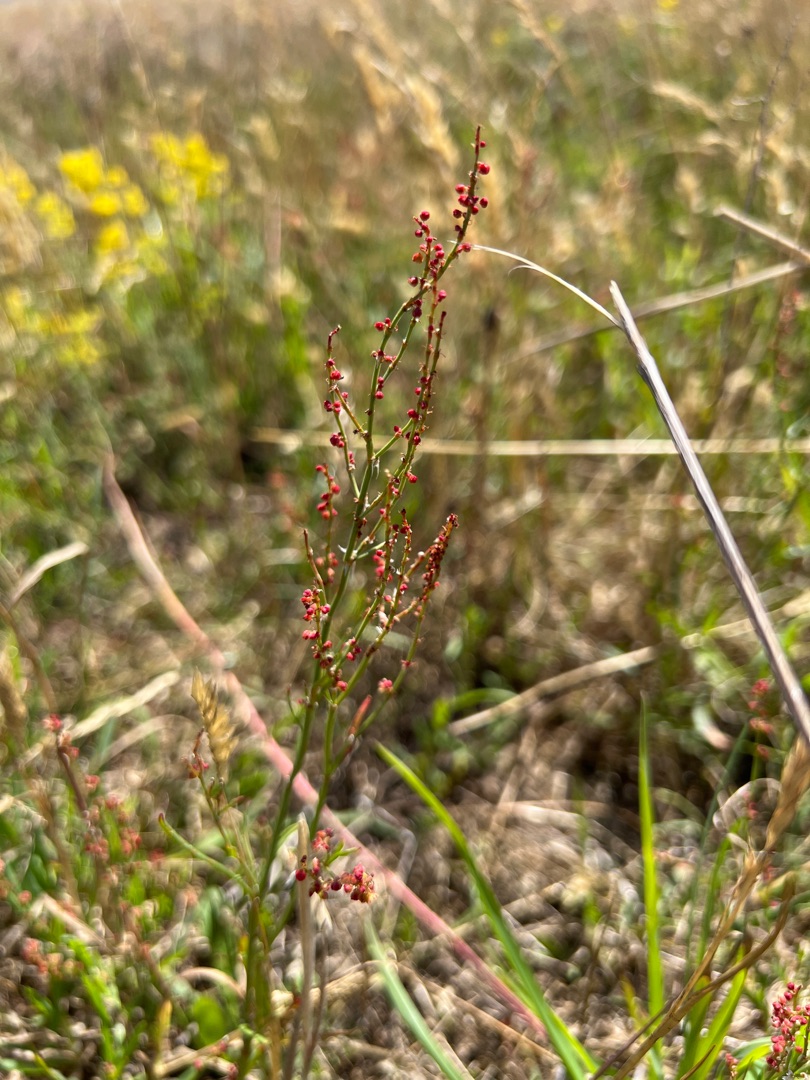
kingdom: Plantae
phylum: Tracheophyta
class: Magnoliopsida
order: Caryophyllales
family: Polygonaceae
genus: Rumex
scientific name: Rumex acetosella
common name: Rødknæ
